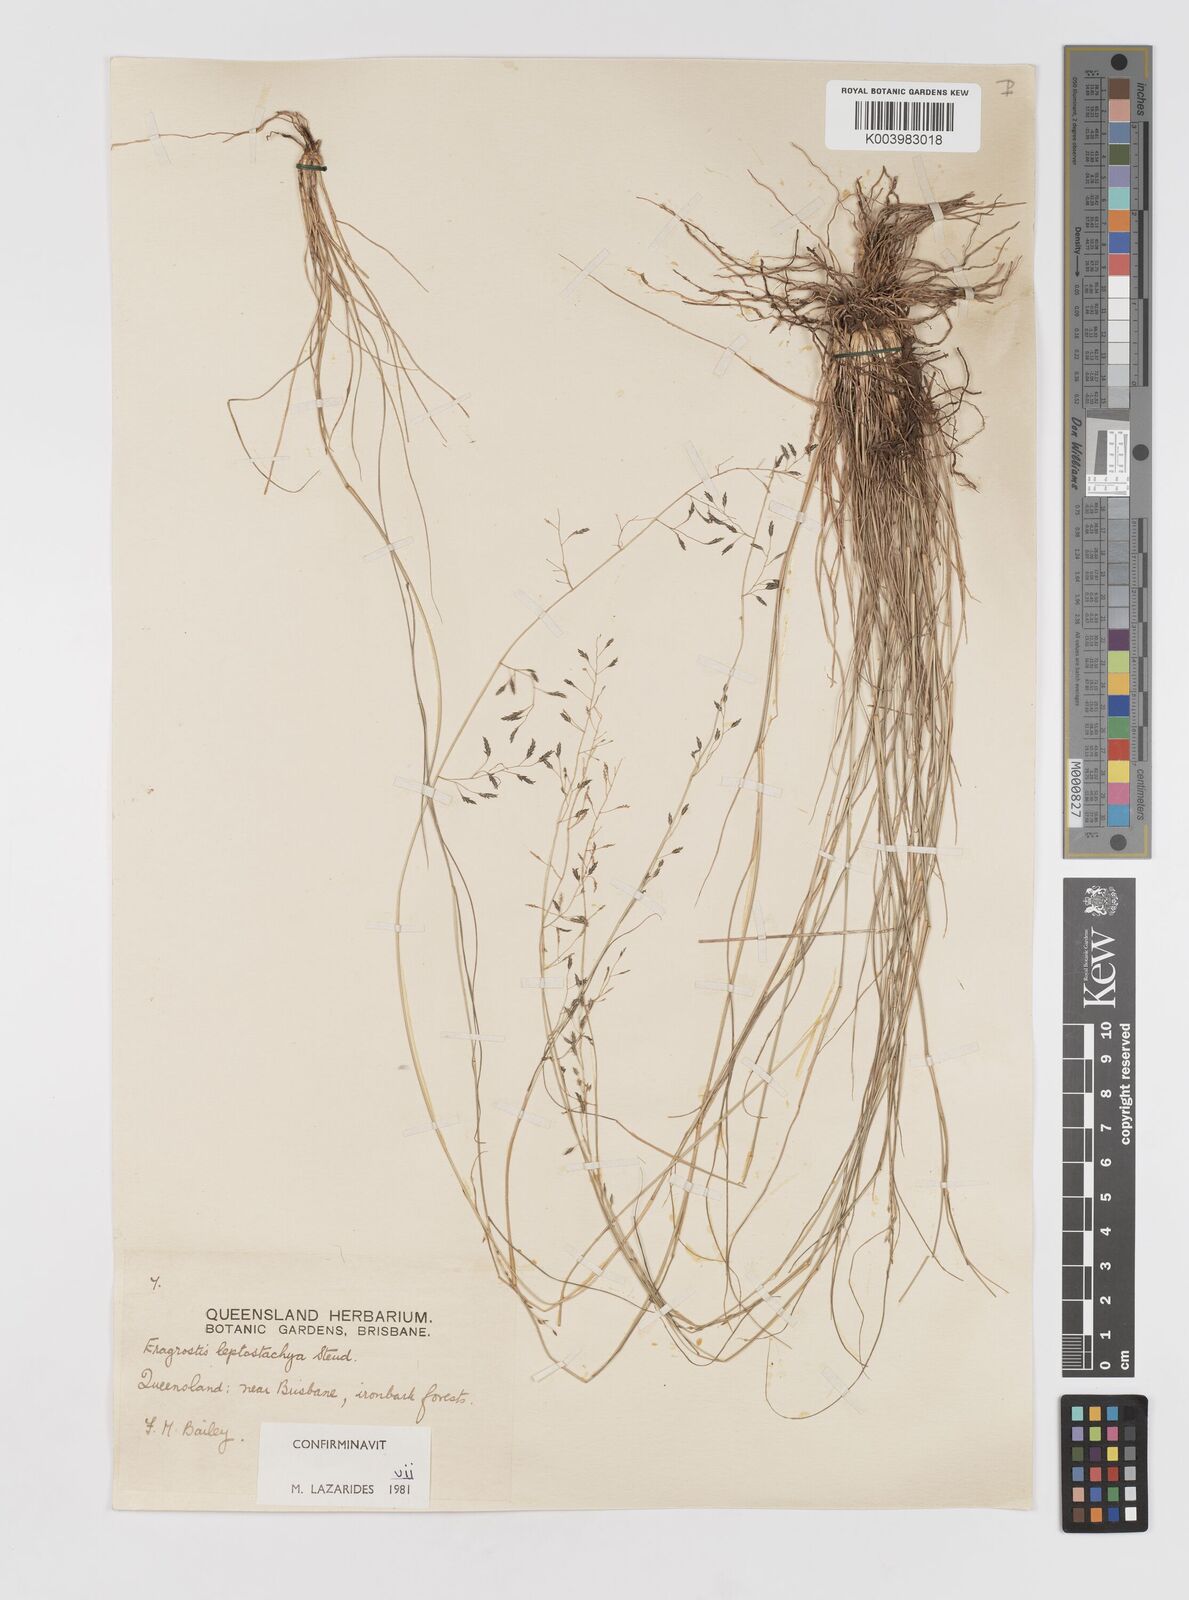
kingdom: Plantae
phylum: Tracheophyta
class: Liliopsida
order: Poales
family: Poaceae
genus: Eragrostis
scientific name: Eragrostis leptostachya
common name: Australian lovegrass
